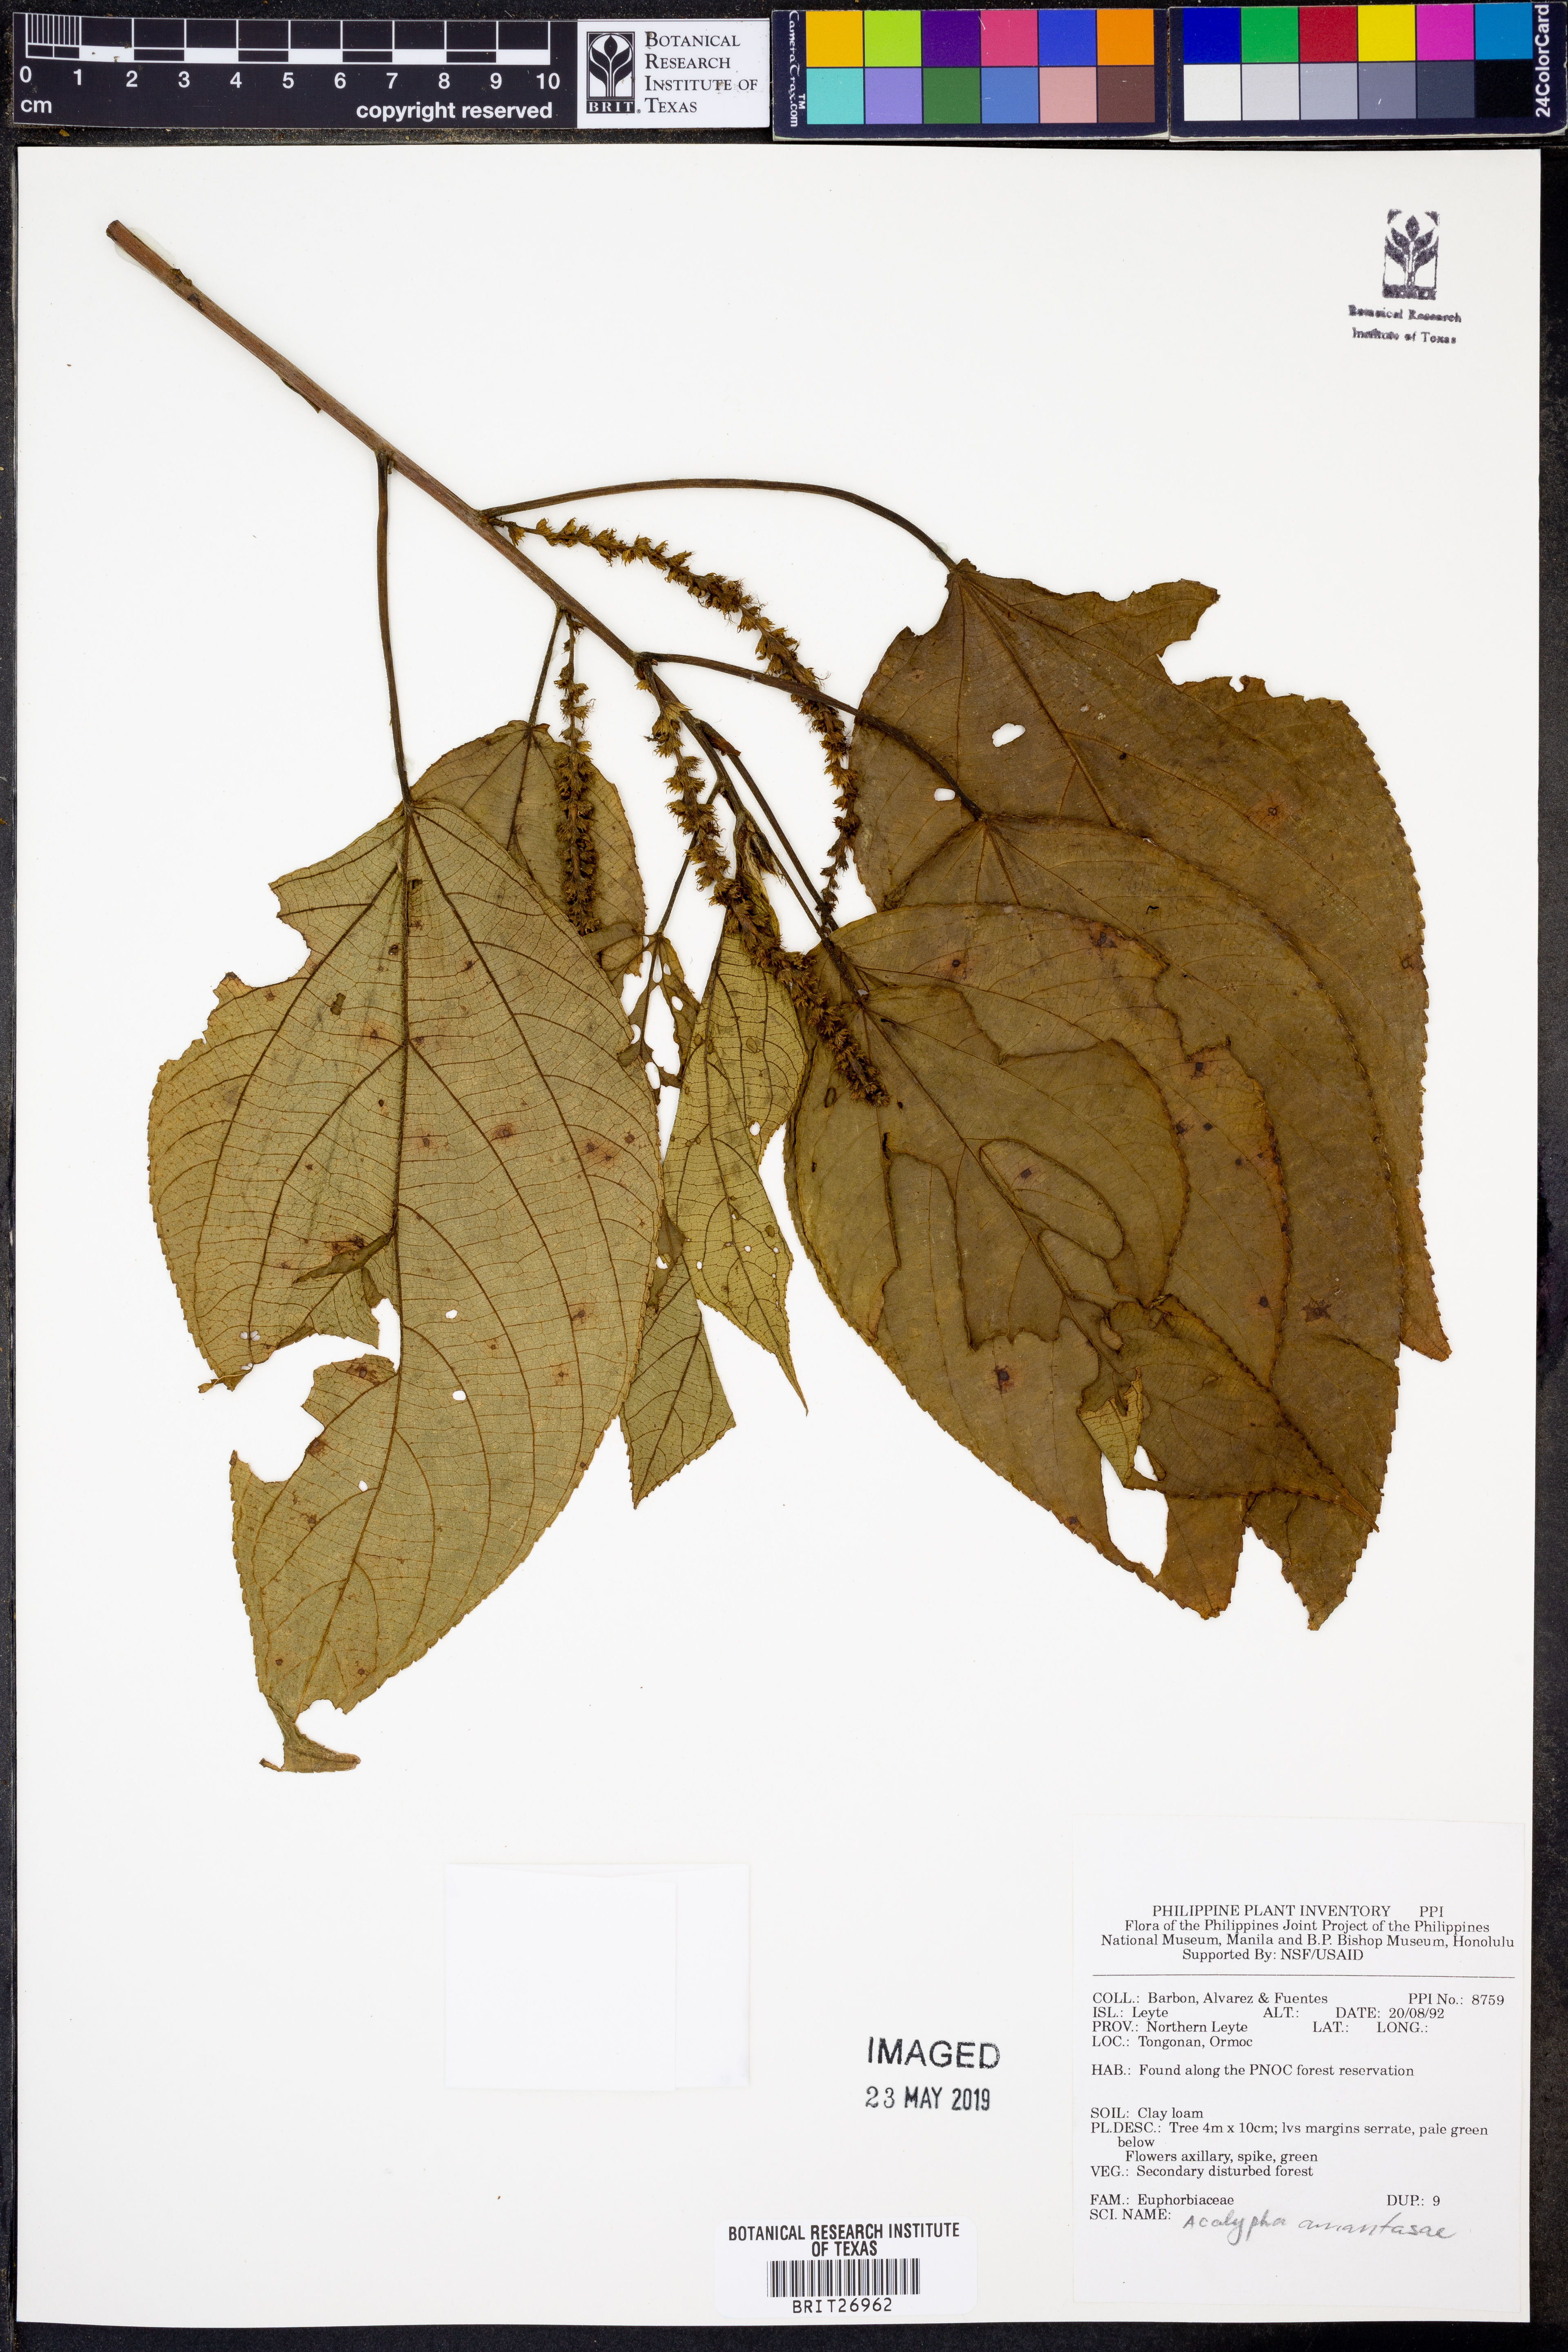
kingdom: Plantae
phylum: Tracheophyta
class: Magnoliopsida
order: Malpighiales
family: Euphorbiaceae
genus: Acalypha
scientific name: Acalypha amentacea
